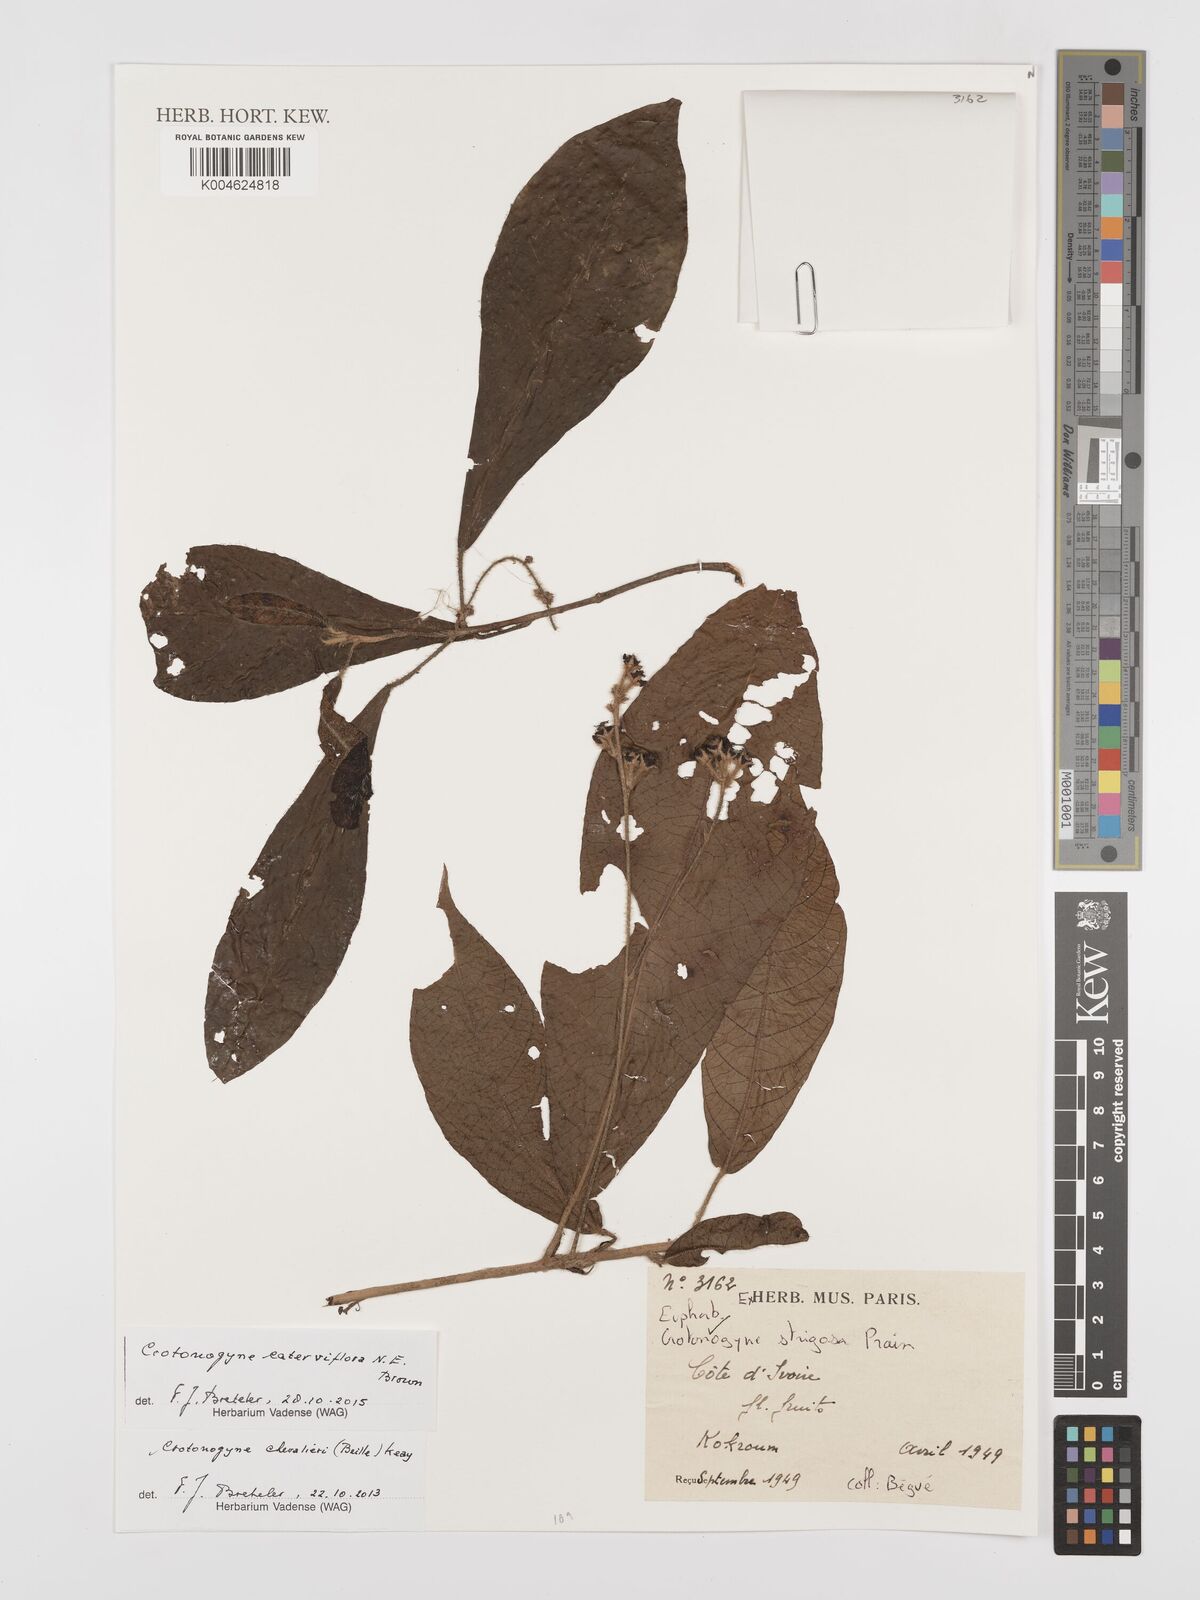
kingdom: Plantae
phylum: Tracheophyta
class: Magnoliopsida
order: Malpighiales
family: Euphorbiaceae
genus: Crotonogyne
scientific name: Crotonogyne caterviflora
